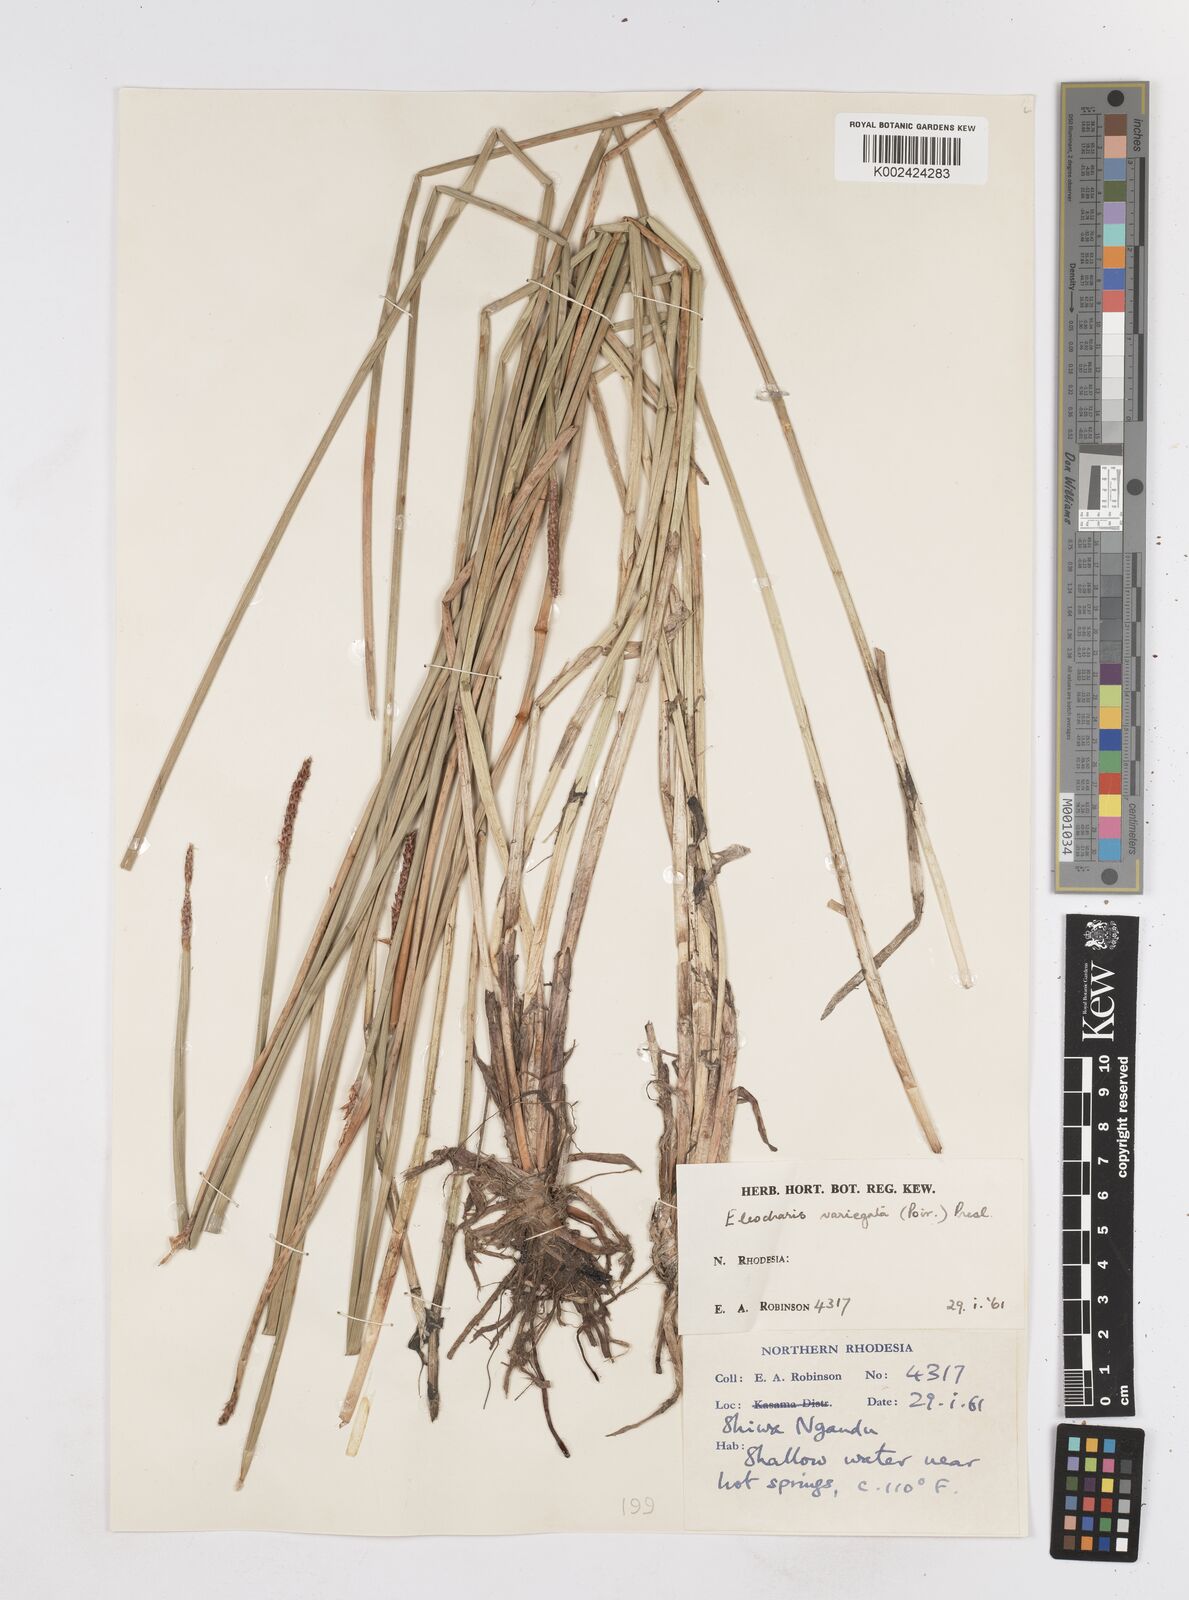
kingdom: Plantae
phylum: Tracheophyta
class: Liliopsida
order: Poales
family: Cyperaceae
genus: Eleocharis
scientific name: Eleocharis variegata
